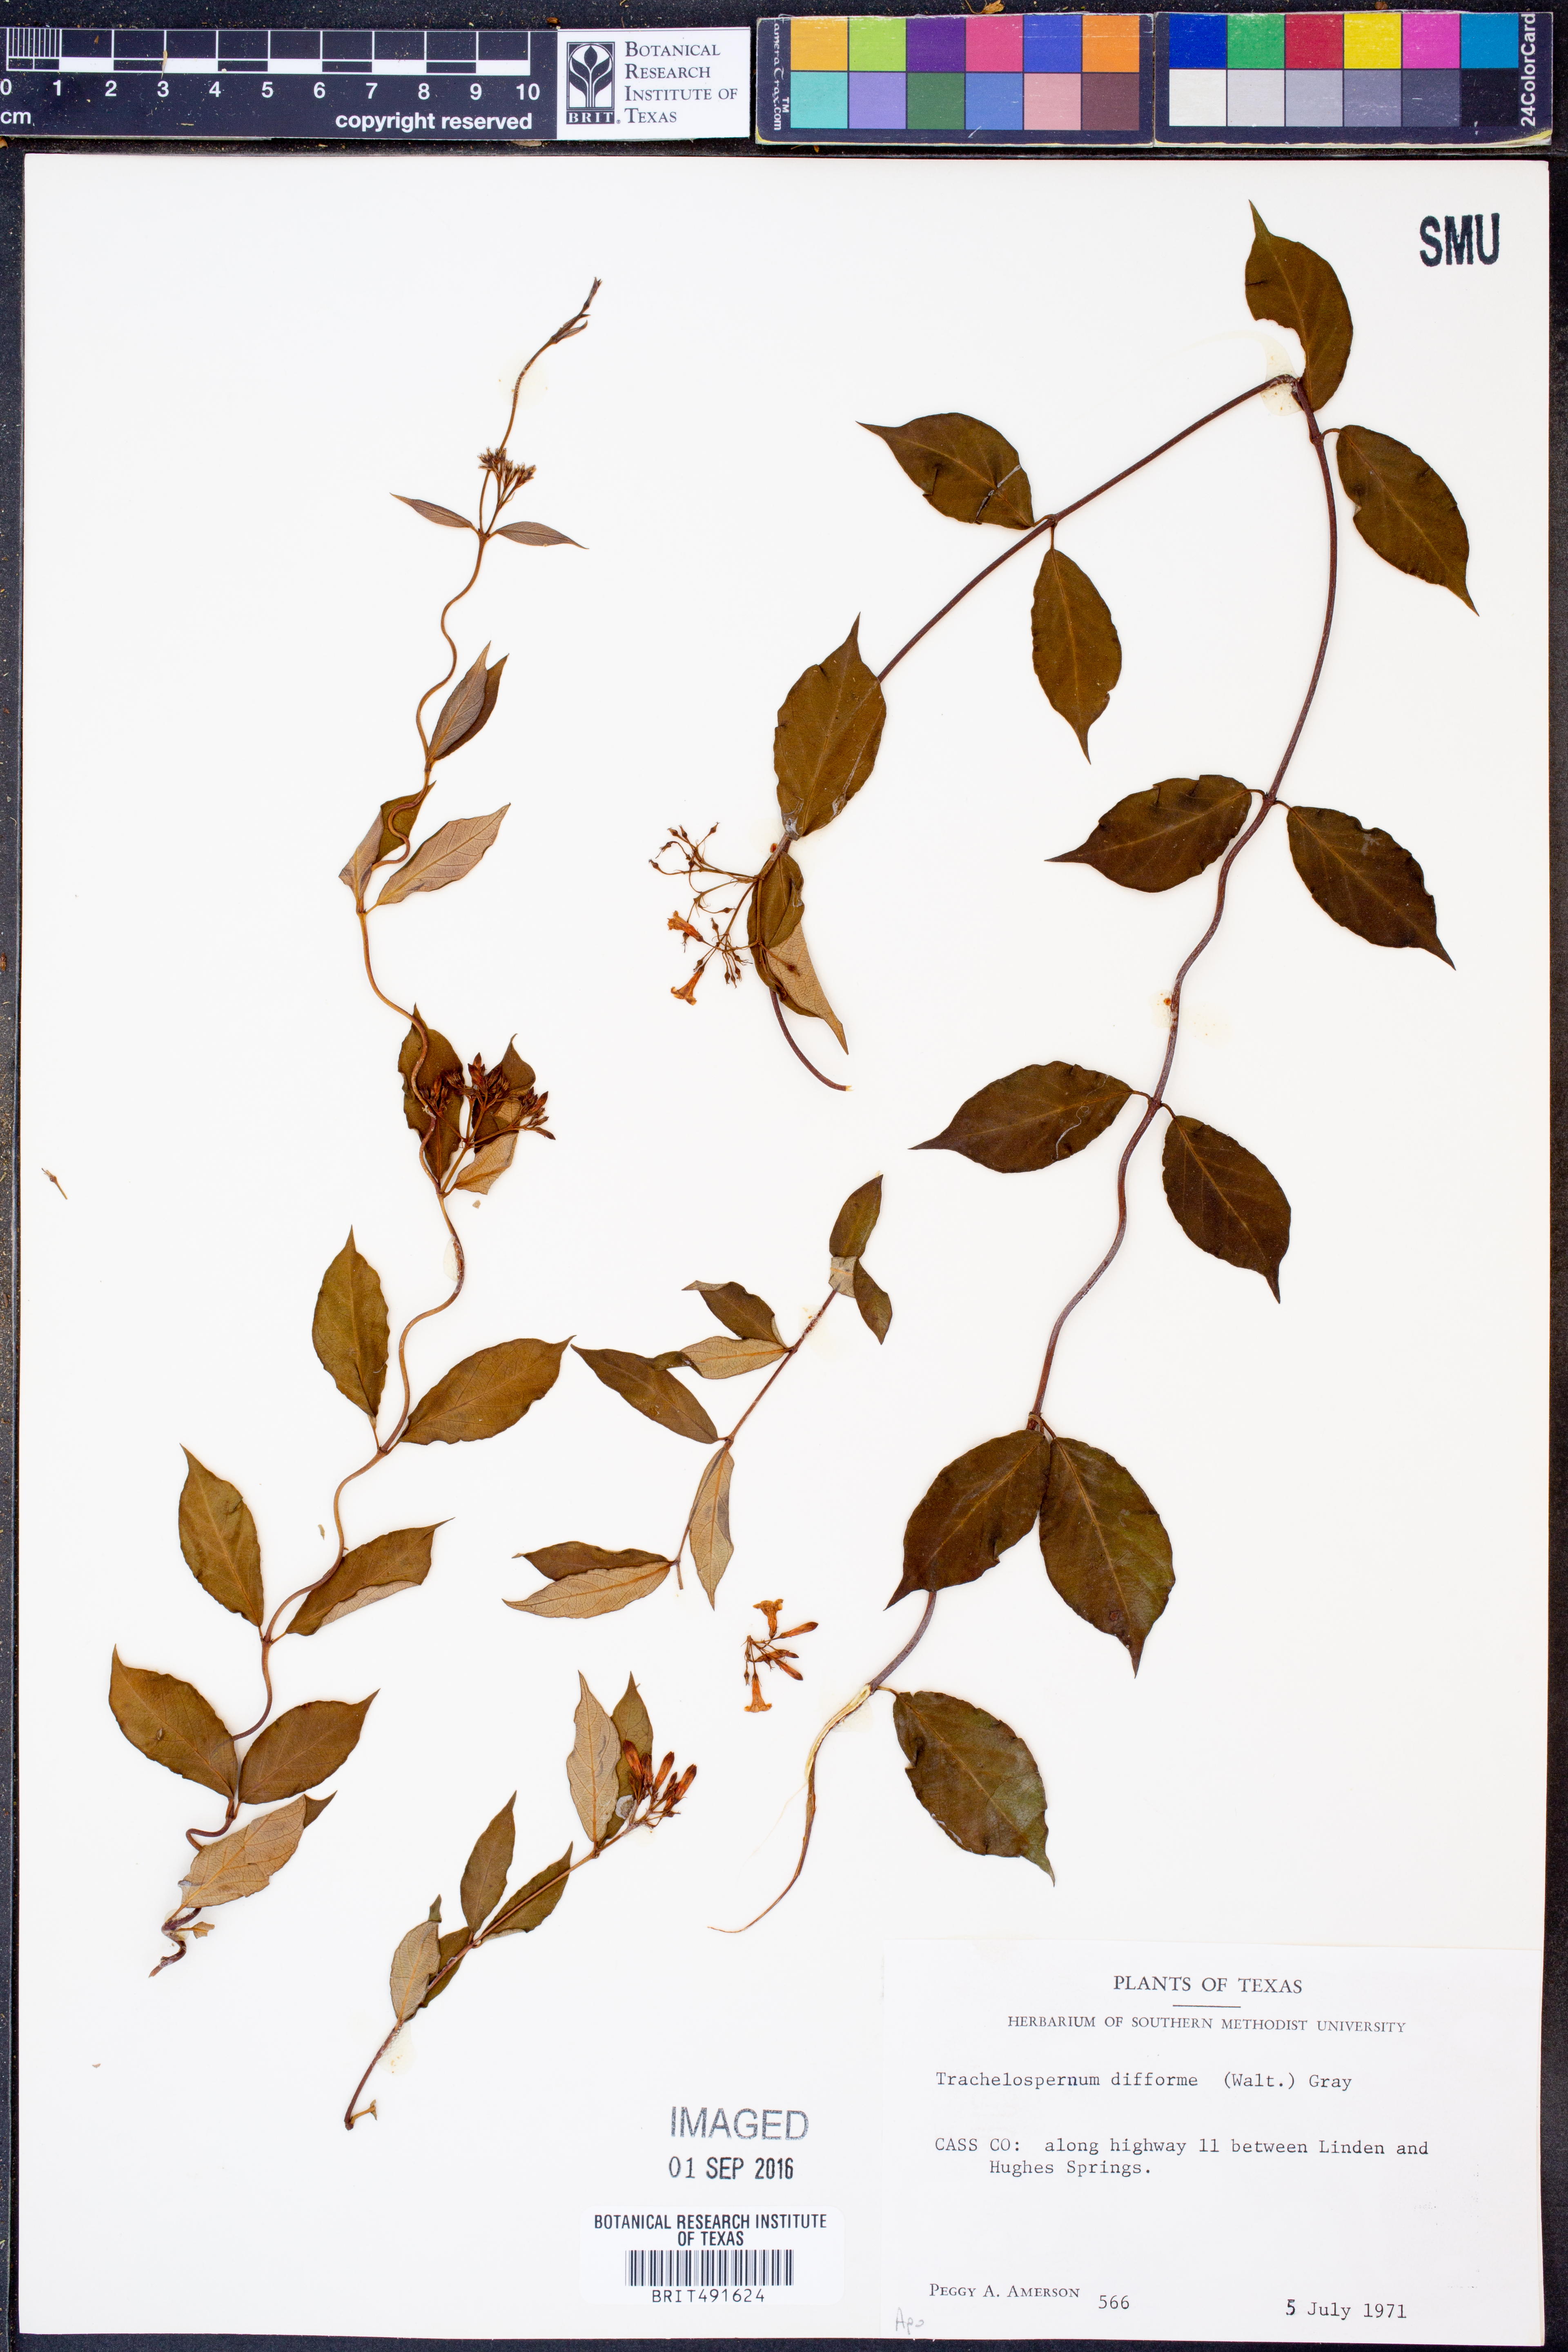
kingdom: Plantae
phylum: Tracheophyta
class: Magnoliopsida
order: Gentianales
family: Apocynaceae
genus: Thyrsanthella
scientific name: Thyrsanthella difformis
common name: Climbing dogbane
